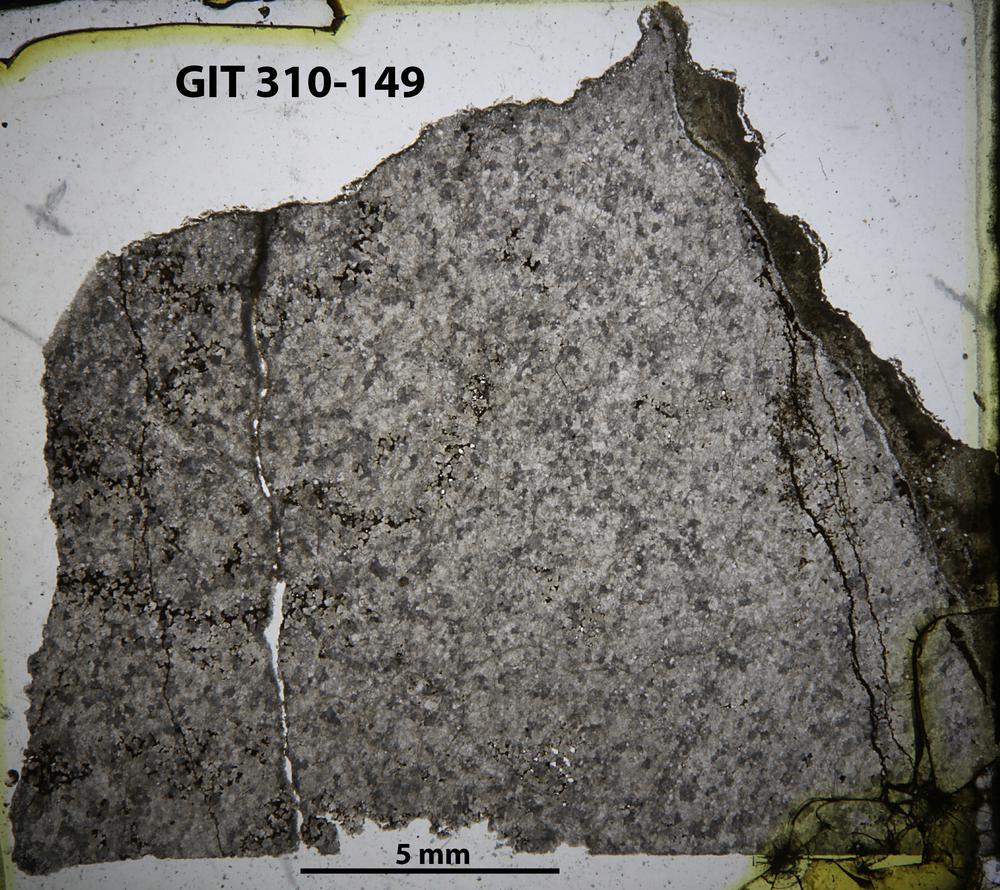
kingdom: Animalia
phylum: Porifera
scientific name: Porifera
